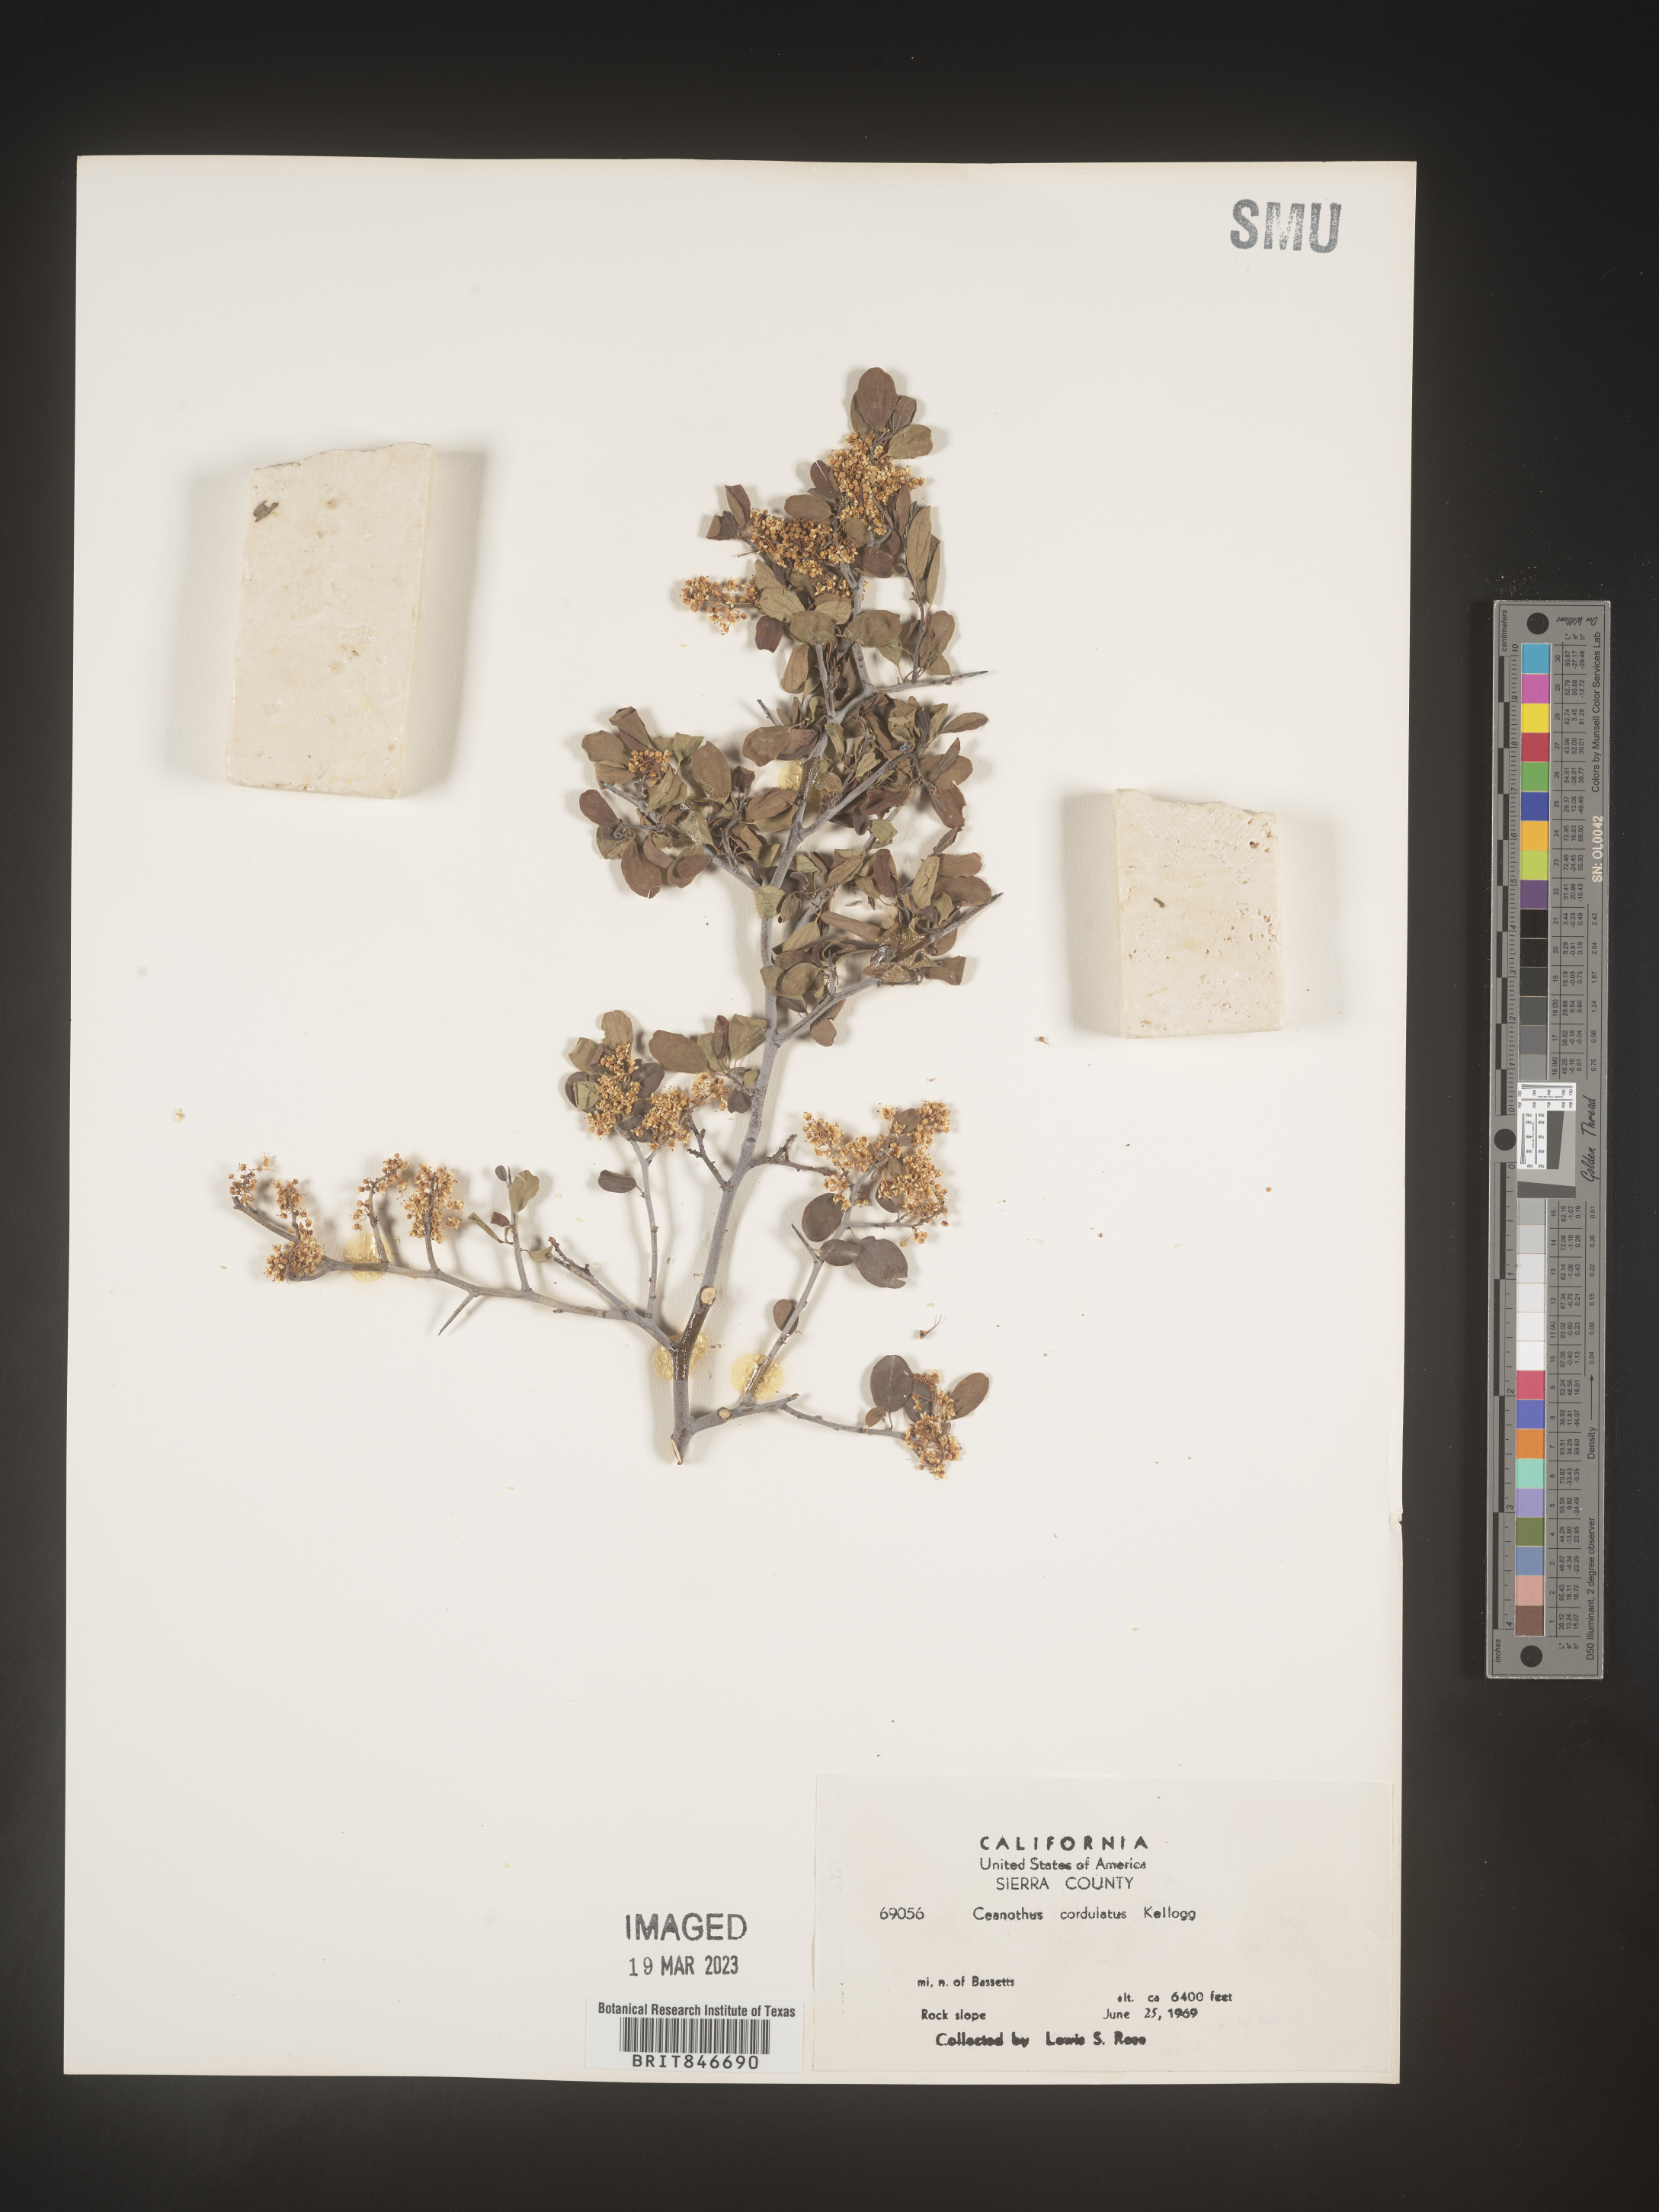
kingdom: Plantae
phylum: Tracheophyta
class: Magnoliopsida
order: Rosales
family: Rhamnaceae
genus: Ceanothus
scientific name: Ceanothus
